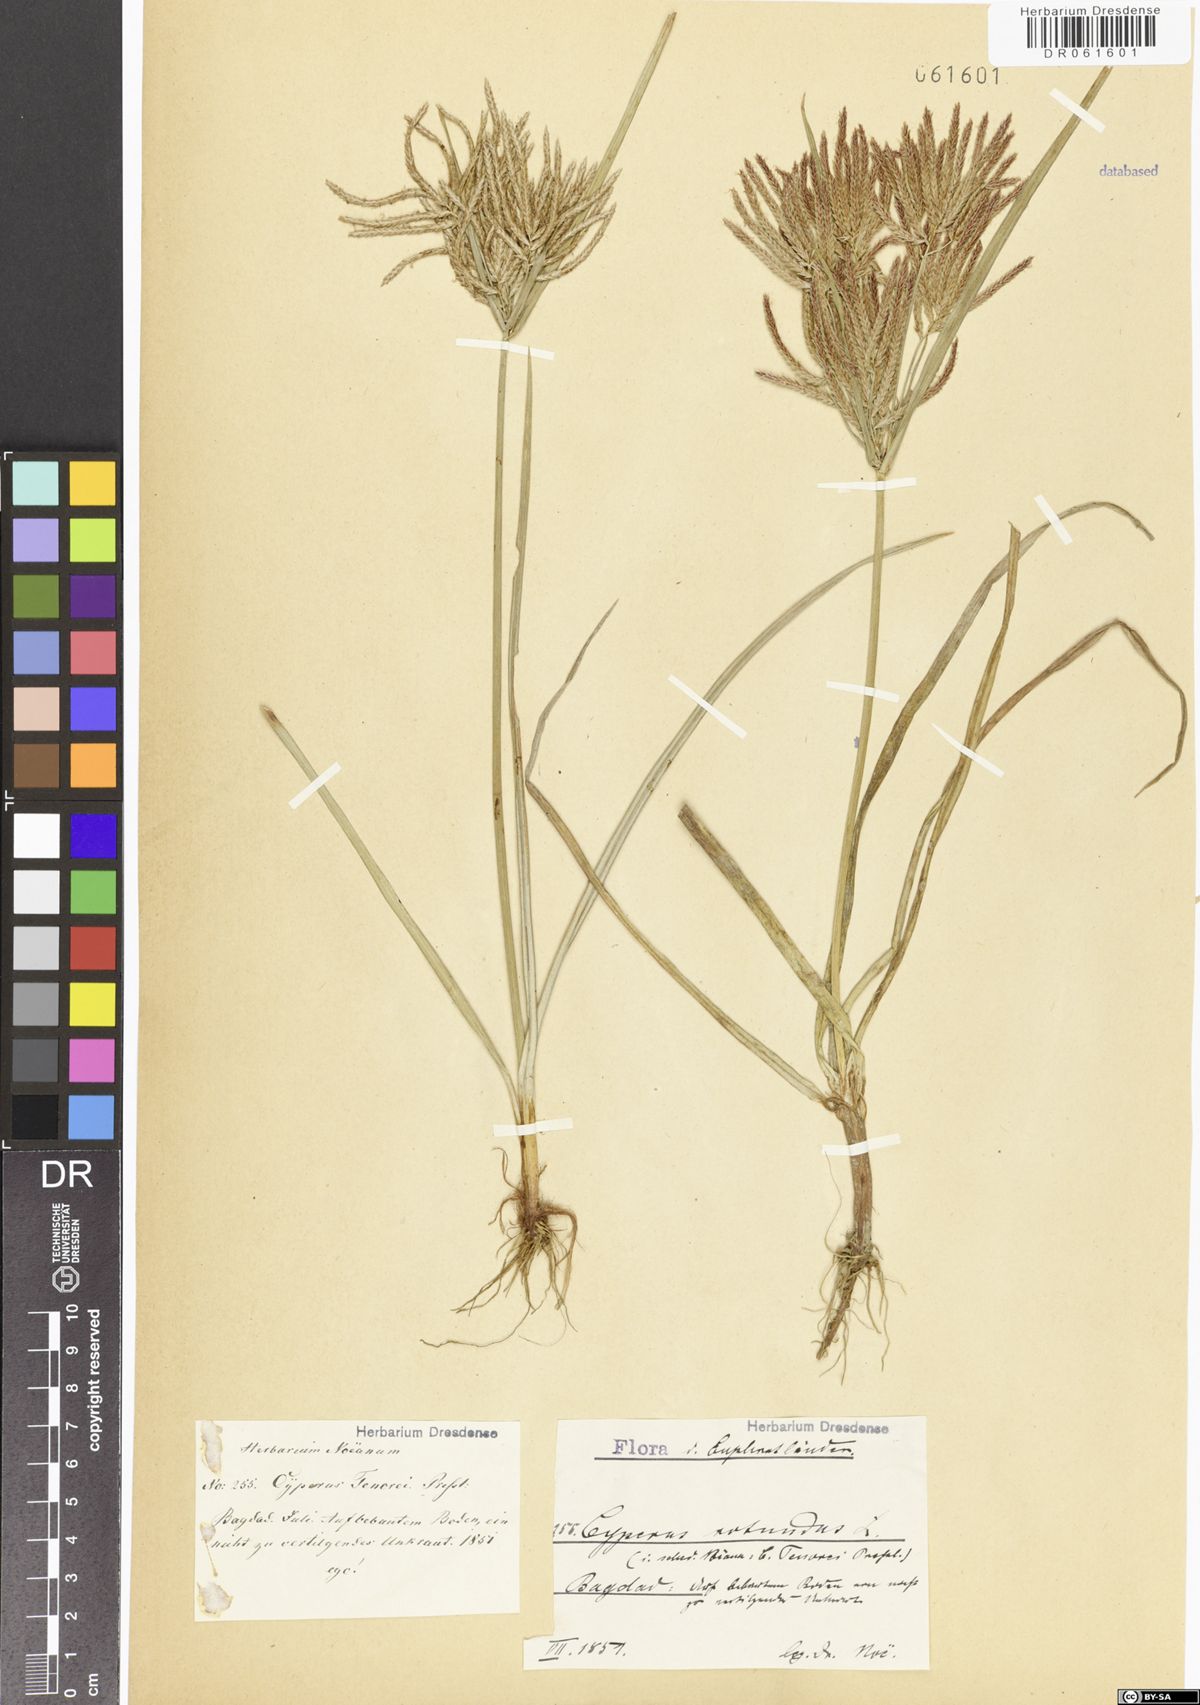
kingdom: Plantae
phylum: Tracheophyta
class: Liliopsida
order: Poales
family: Cyperaceae
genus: Cyperus
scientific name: Cyperus rotundus
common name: Nutgrass
